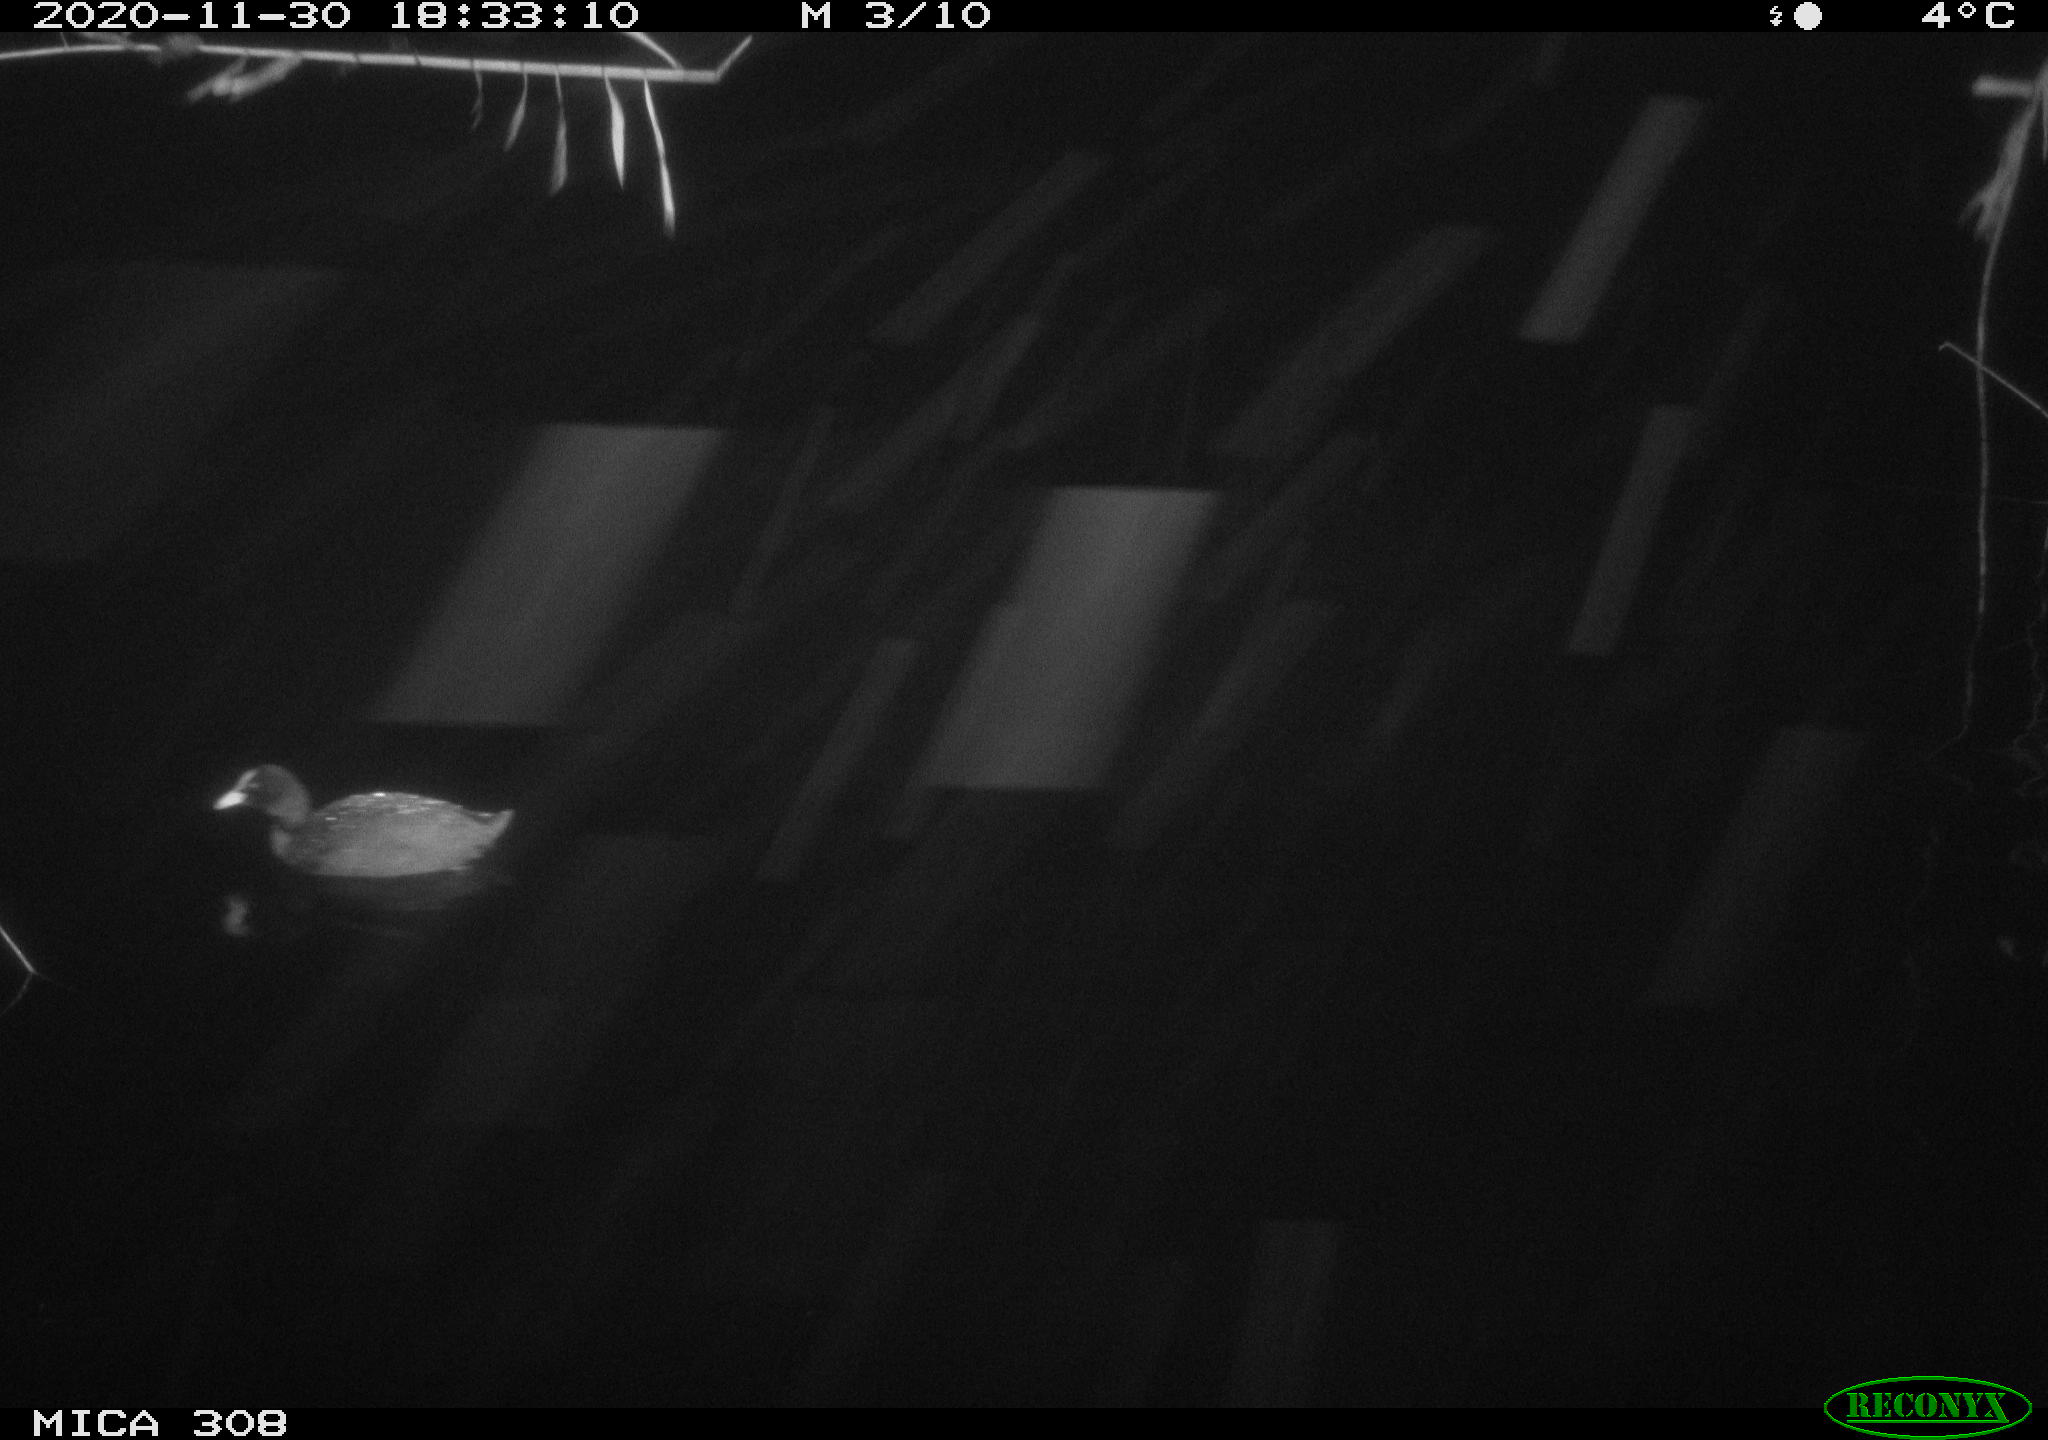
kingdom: Animalia
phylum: Chordata
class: Aves
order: Gruiformes
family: Rallidae
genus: Fulica
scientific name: Fulica atra
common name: Eurasian coot
